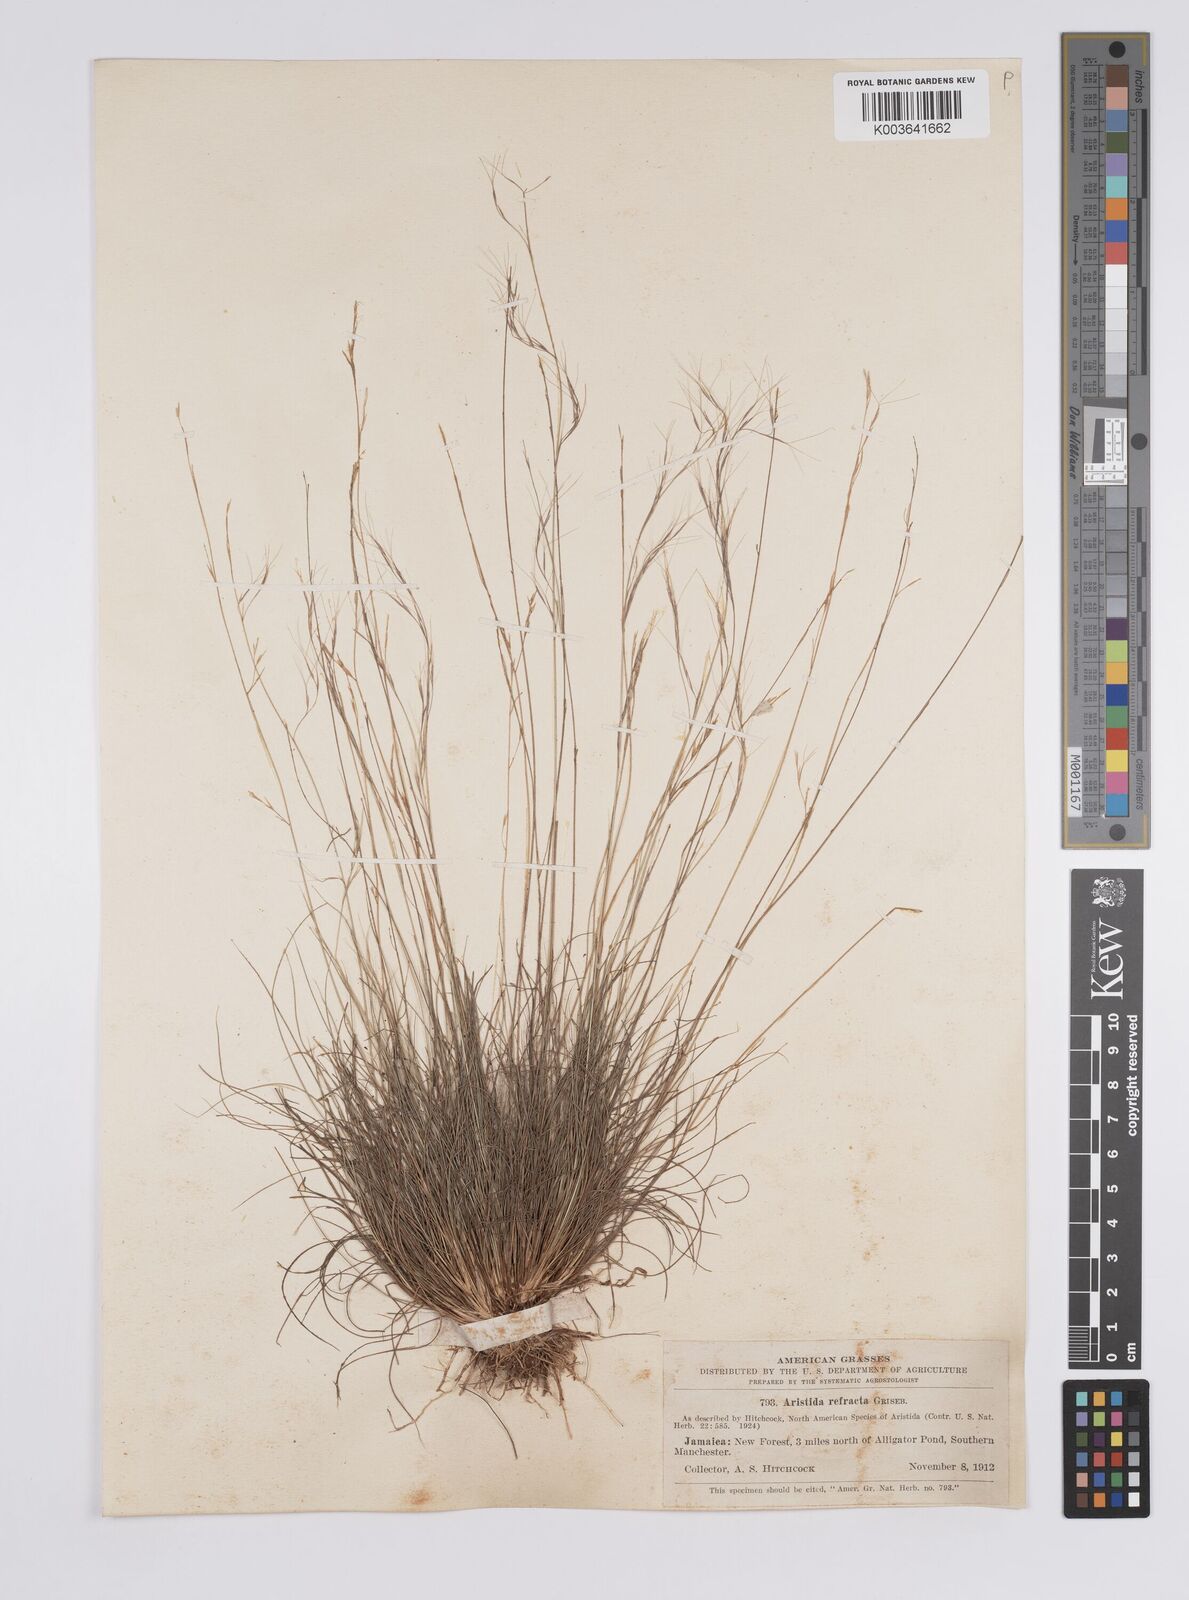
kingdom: Plantae
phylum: Tracheophyta
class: Liliopsida
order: Poales
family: Poaceae
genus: Aristida
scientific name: Aristida refracta
